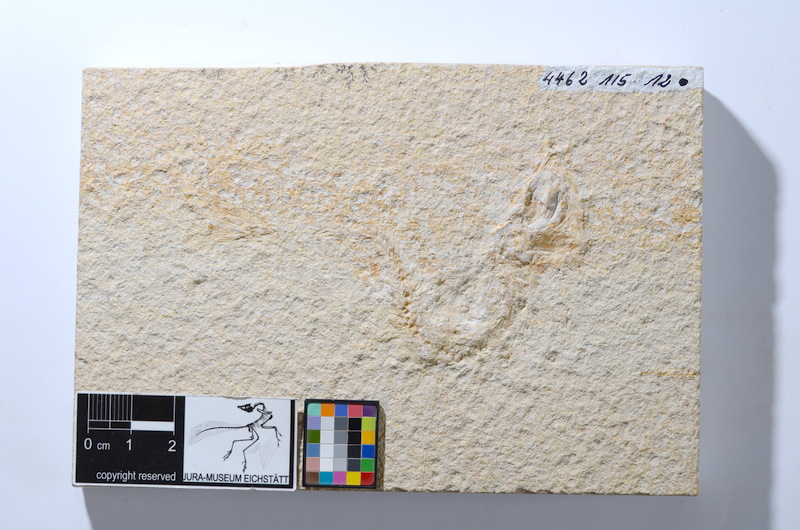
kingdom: Animalia
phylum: Chordata
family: Ascalaboidae
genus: Tharsis
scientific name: Tharsis dubius
